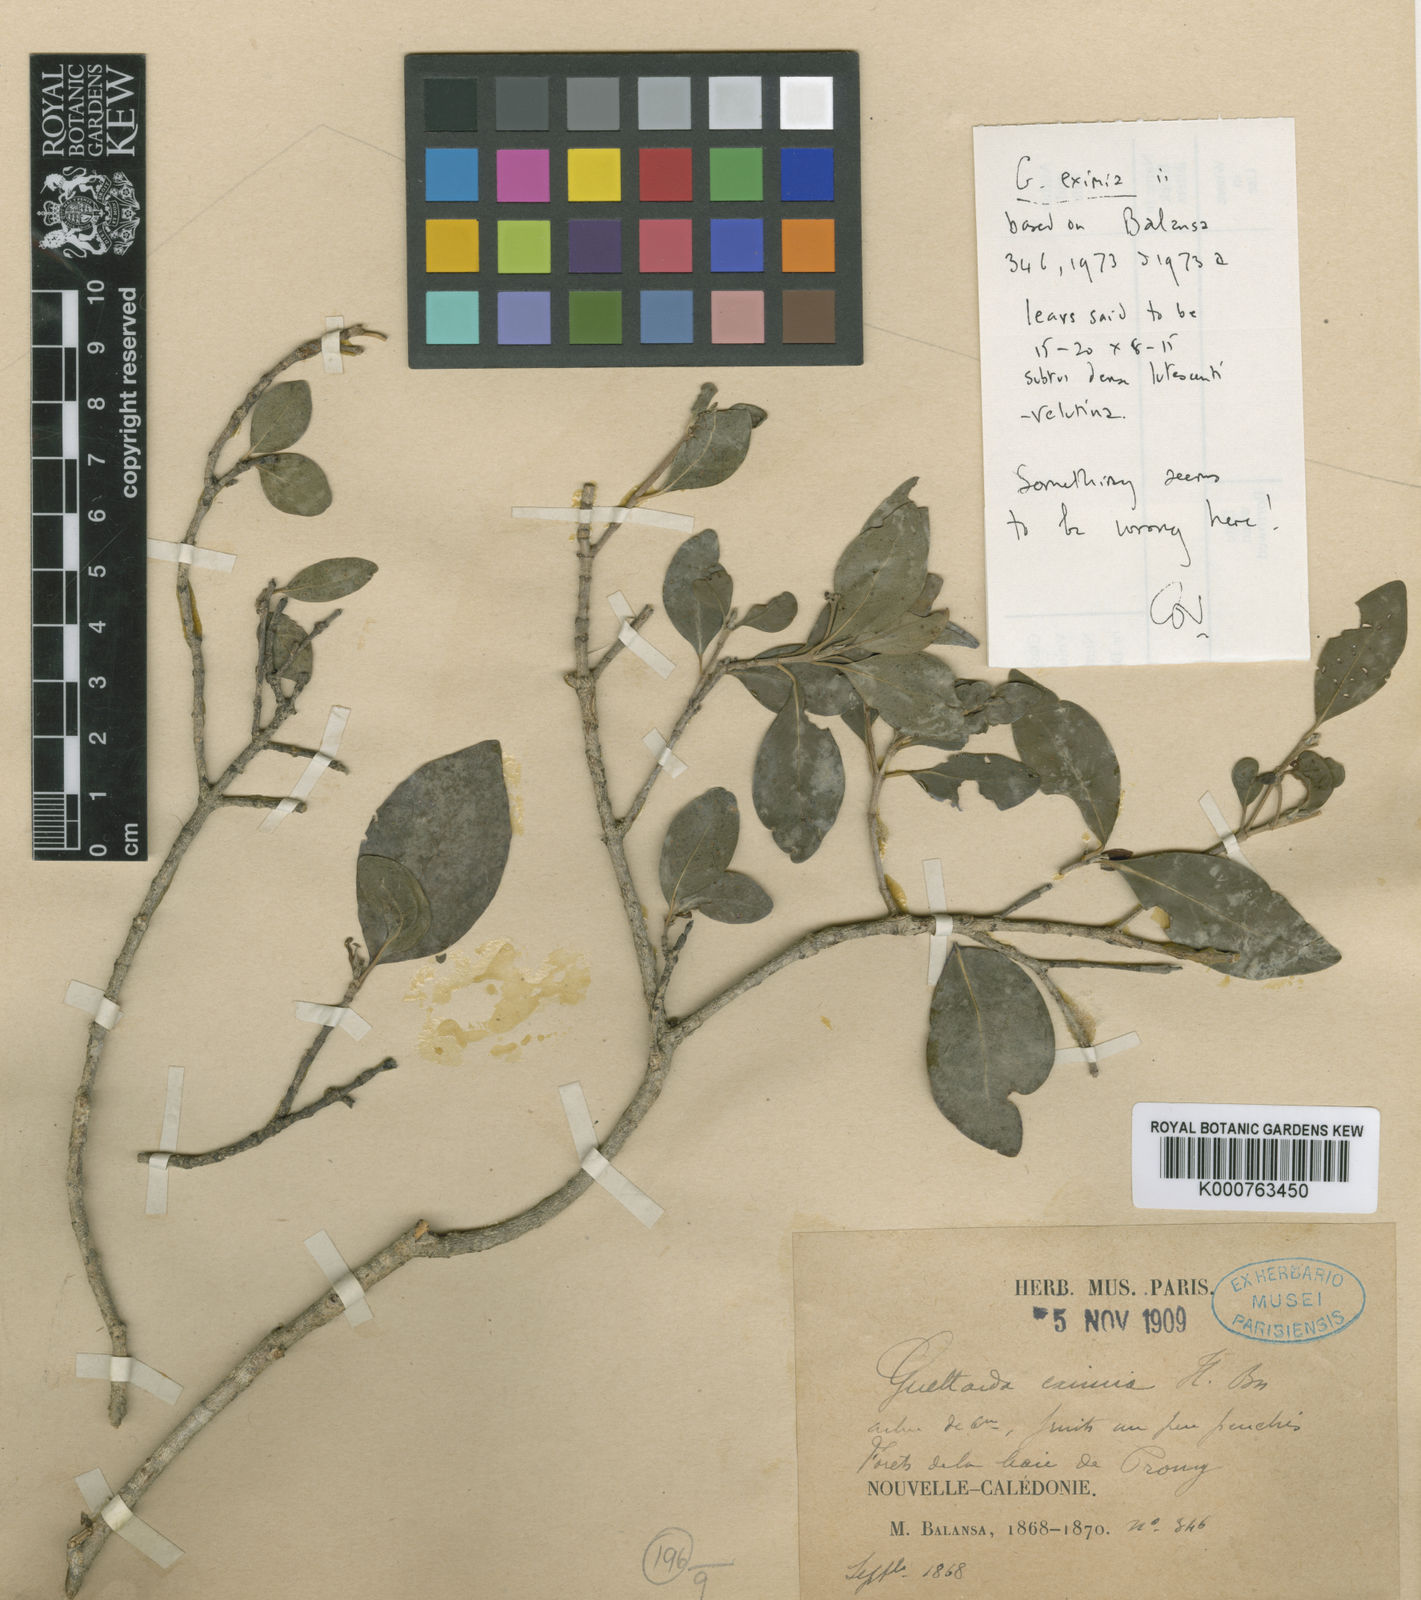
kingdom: Plantae
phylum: Tracheophyta
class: Magnoliopsida
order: Gentianales
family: Rubiaceae
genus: Timonius
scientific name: Timonius eximius
